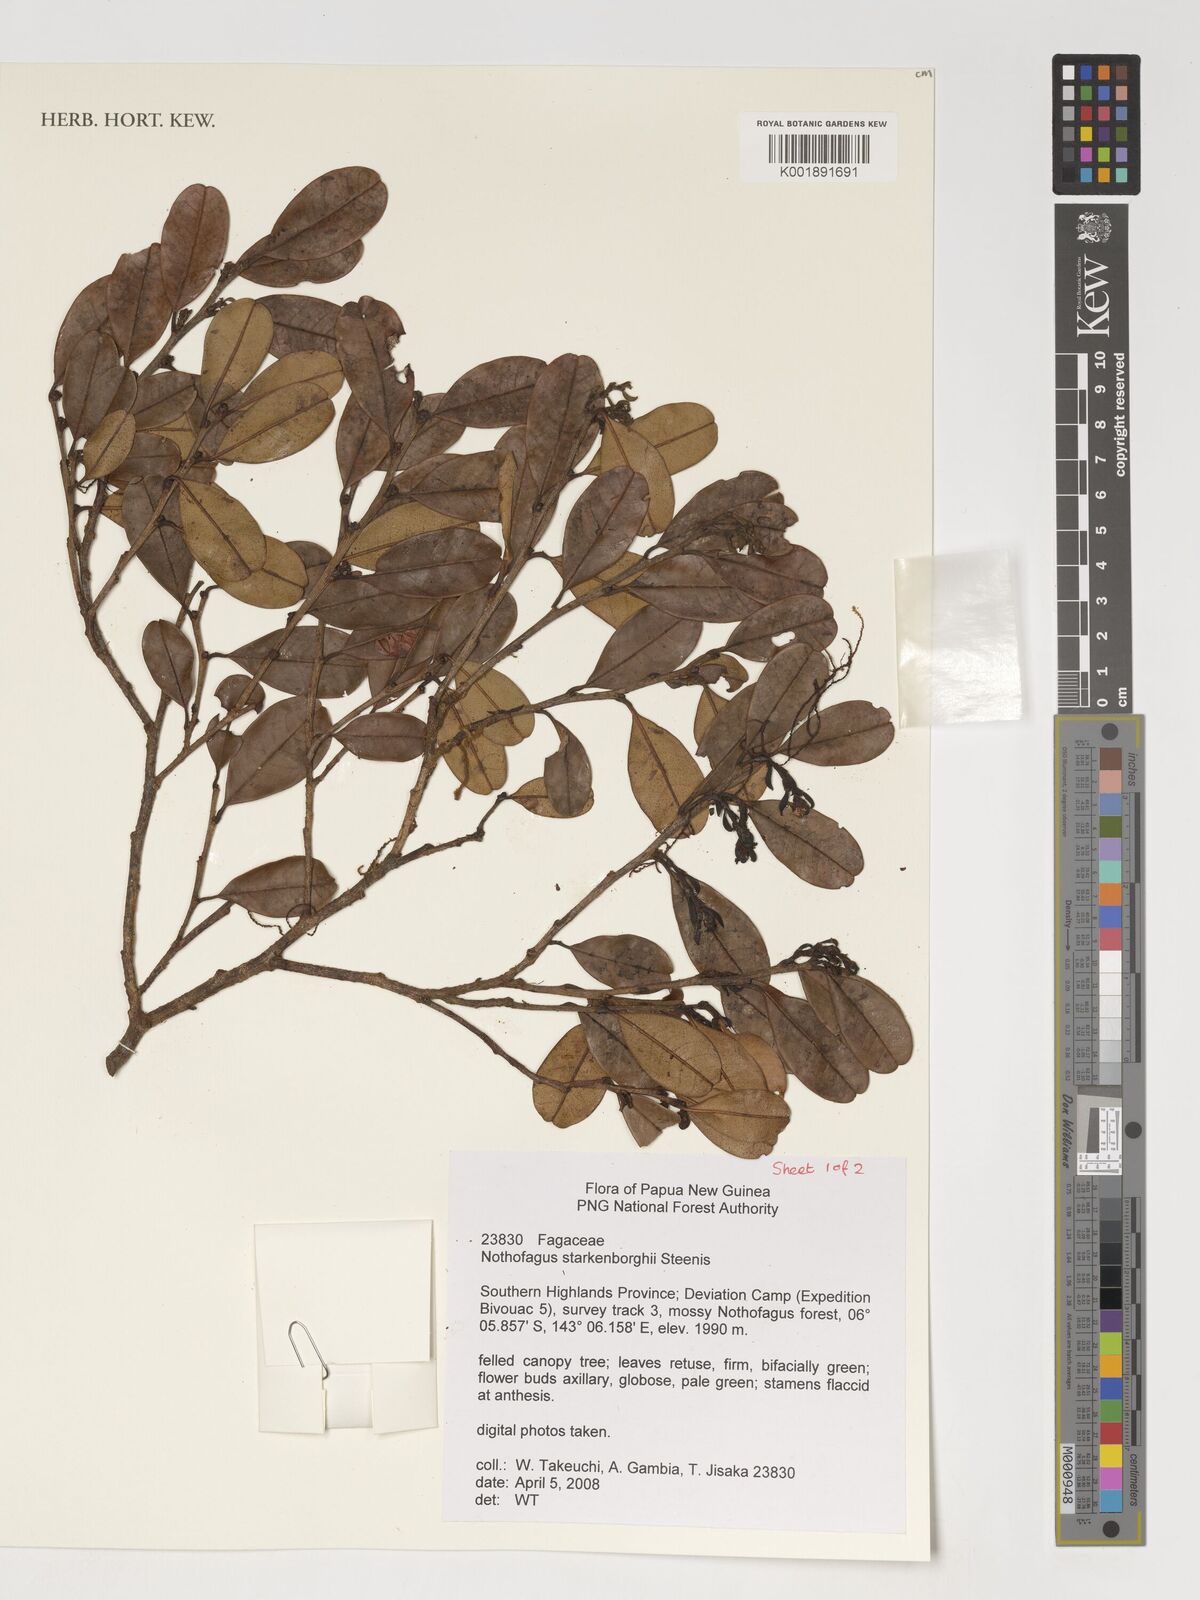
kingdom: Plantae
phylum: Tracheophyta
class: Magnoliopsida
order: Fagales
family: Nothofagaceae
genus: Nothofagus
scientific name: Nothofagus starkenborghiorum
